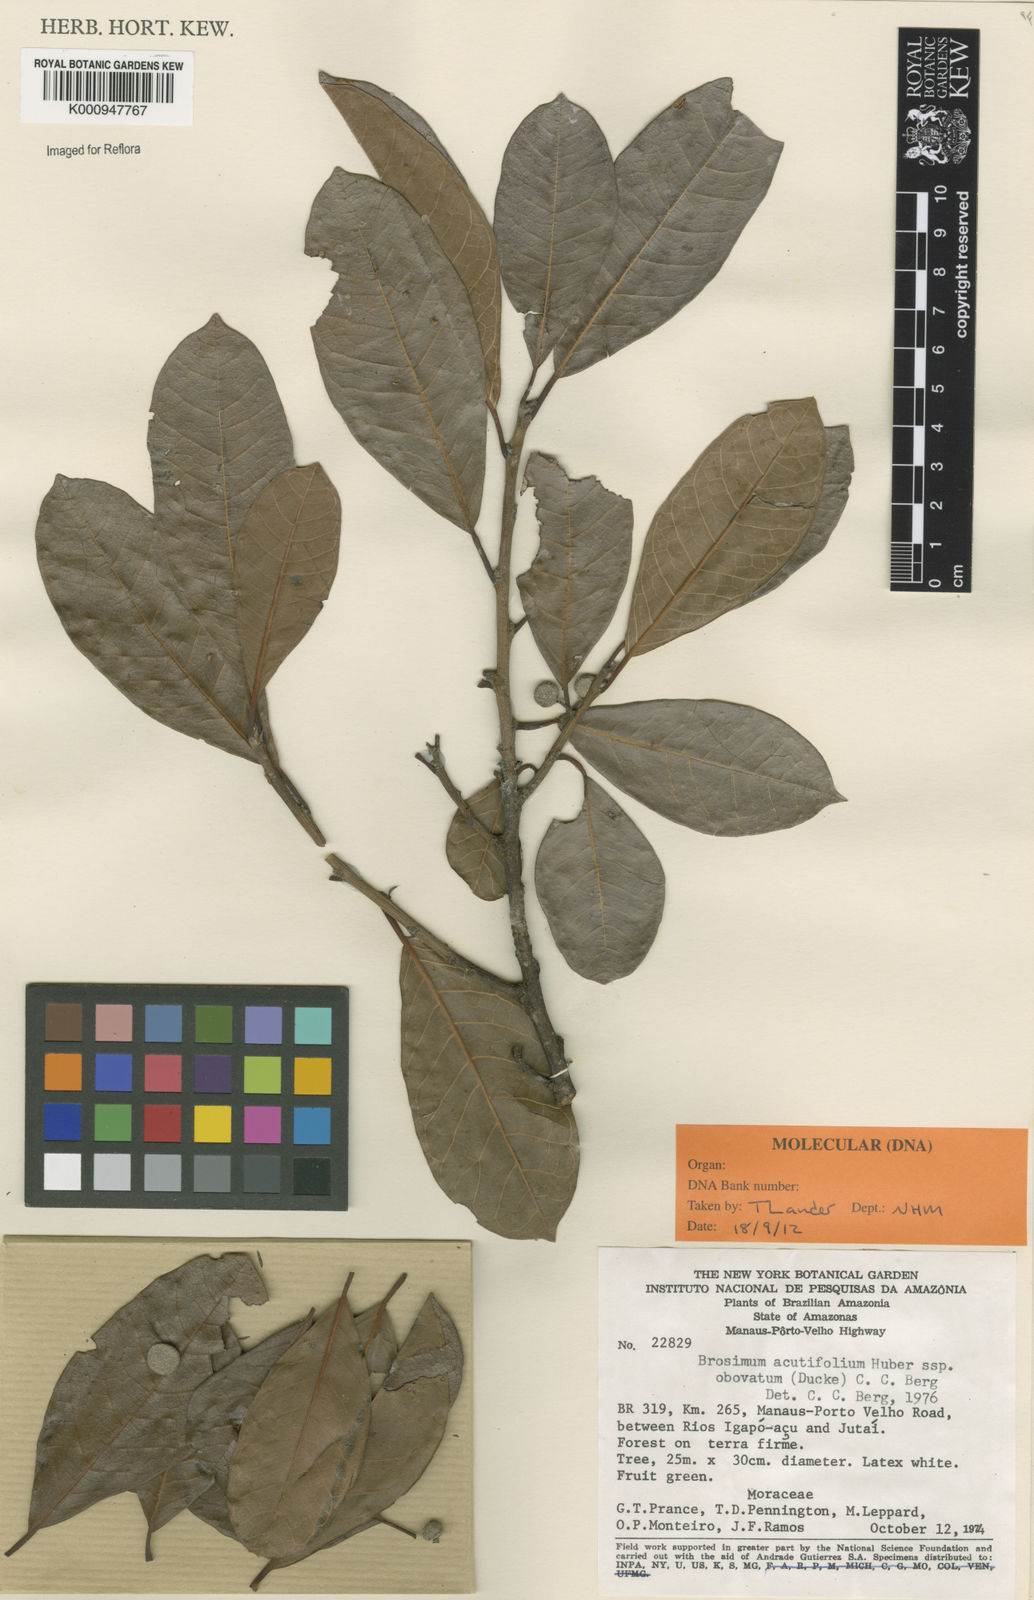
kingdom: Plantae
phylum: Tracheophyta
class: Magnoliopsida
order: Rosales
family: Moraceae
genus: Brosimum
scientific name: Brosimum acutifolium
